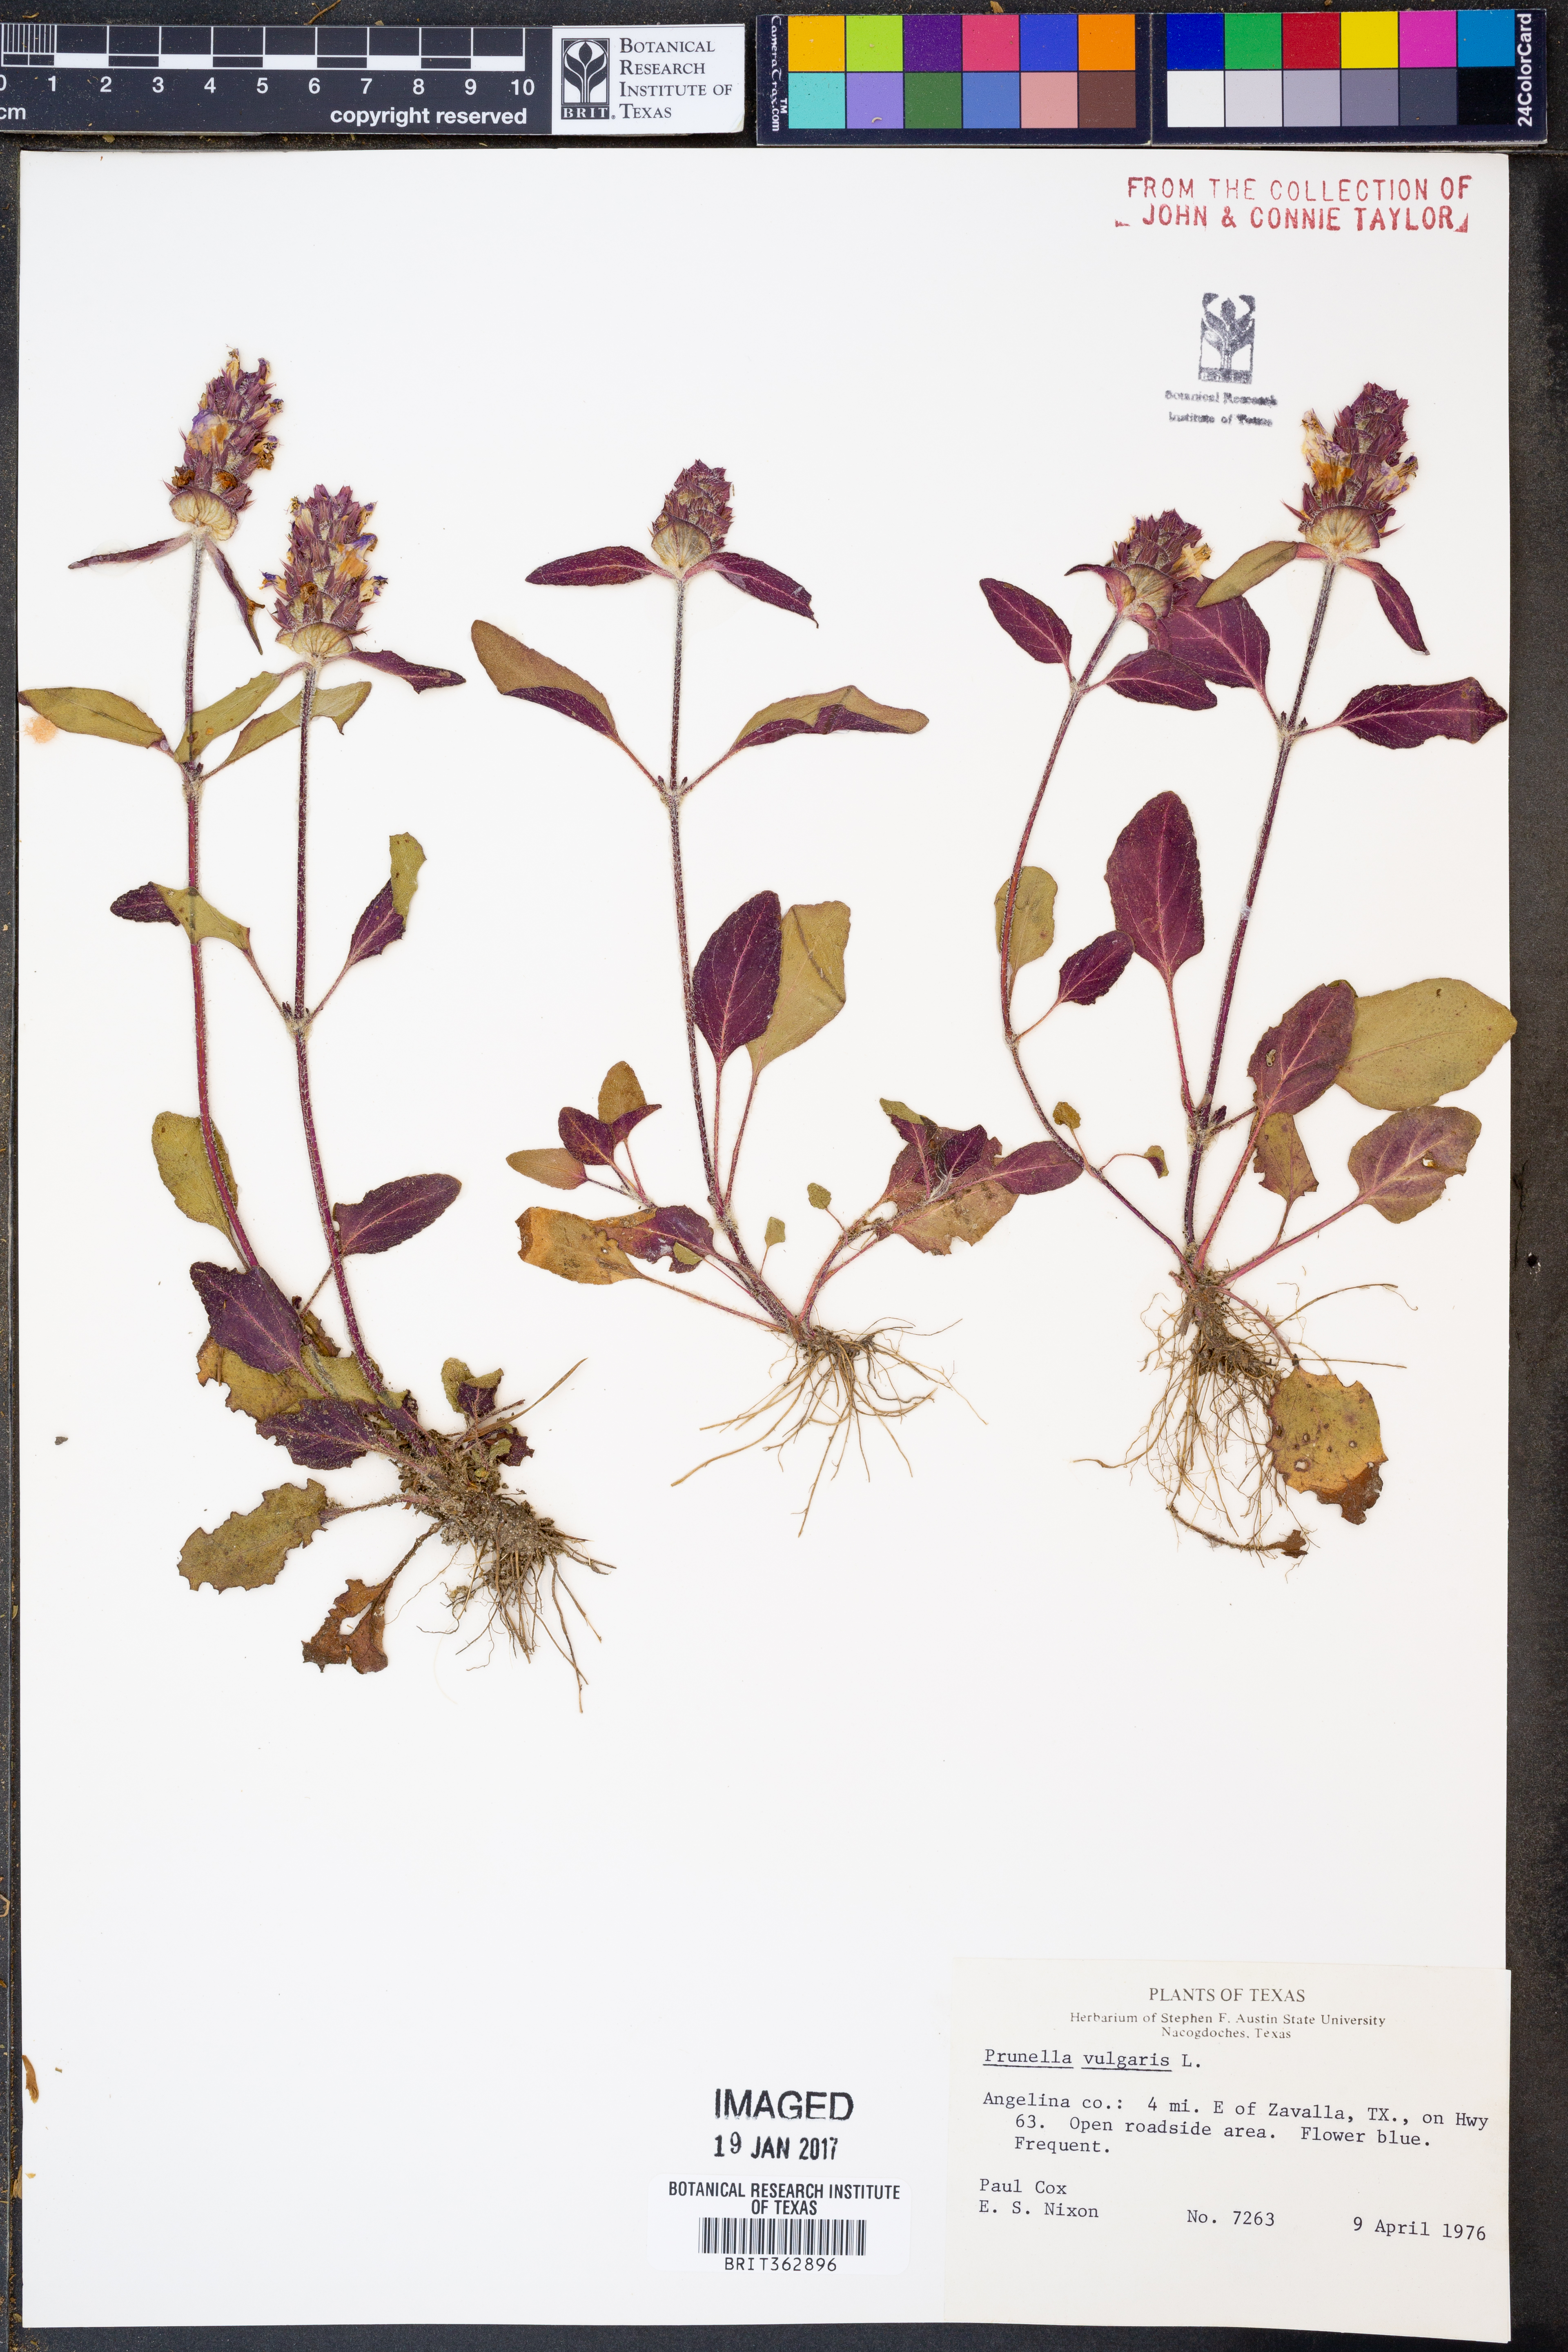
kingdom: Plantae
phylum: Tracheophyta
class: Magnoliopsida
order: Lamiales
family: Lamiaceae
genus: Prunella
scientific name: Prunella vulgaris
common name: Heal-all
